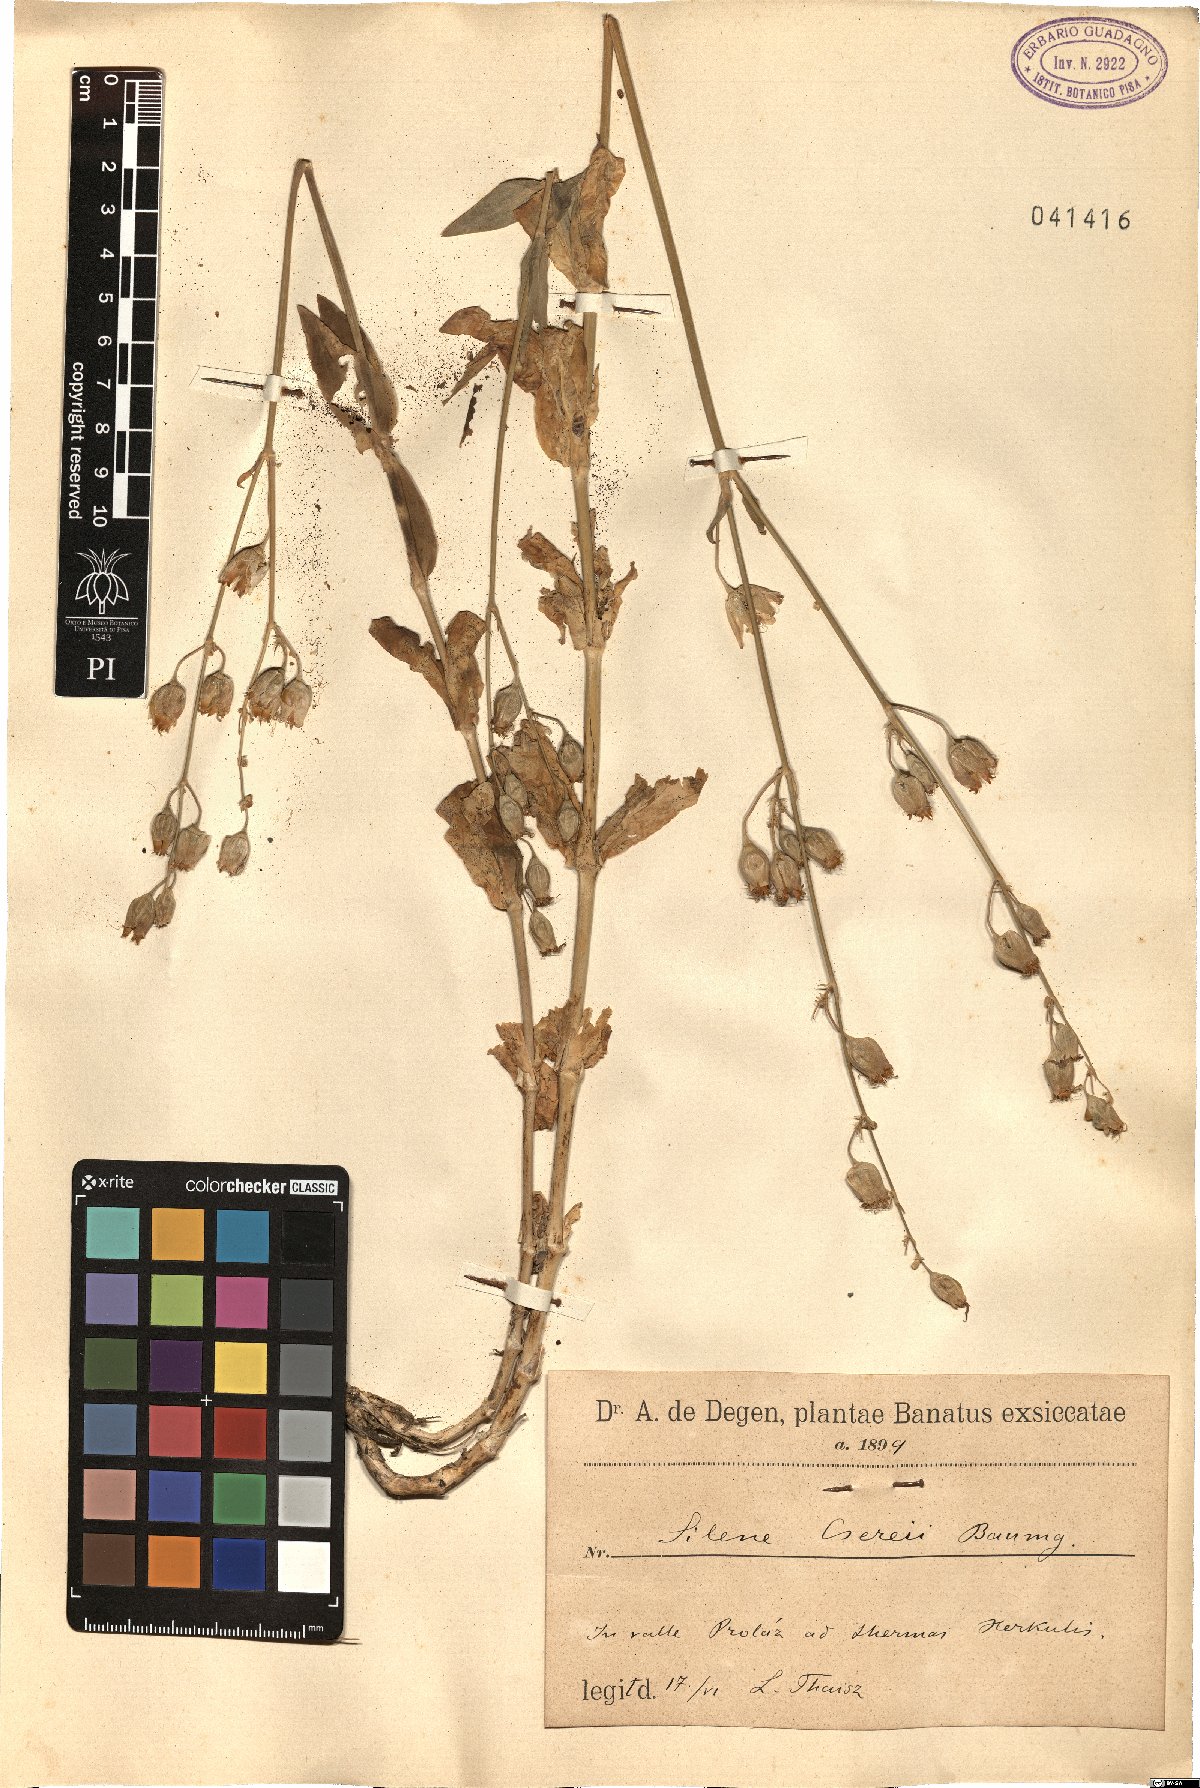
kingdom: Plantae
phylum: Tracheophyta
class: Magnoliopsida
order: Caryophyllales
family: Caryophyllaceae
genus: Silene
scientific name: Silene csereii
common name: Balkan catchfly
